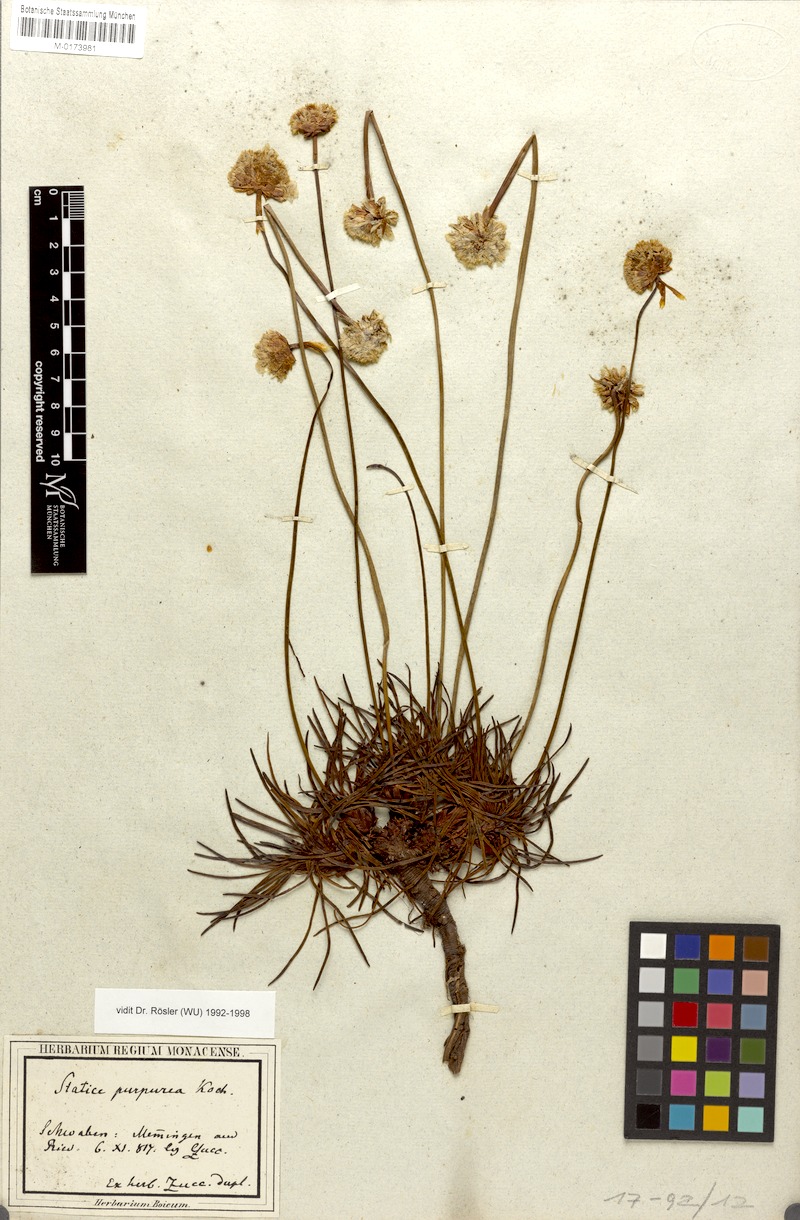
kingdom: Plantae
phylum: Tracheophyta
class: Magnoliopsida
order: Caryophyllales
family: Plumbaginaceae
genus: Armeria
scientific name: Armeria purpurea
